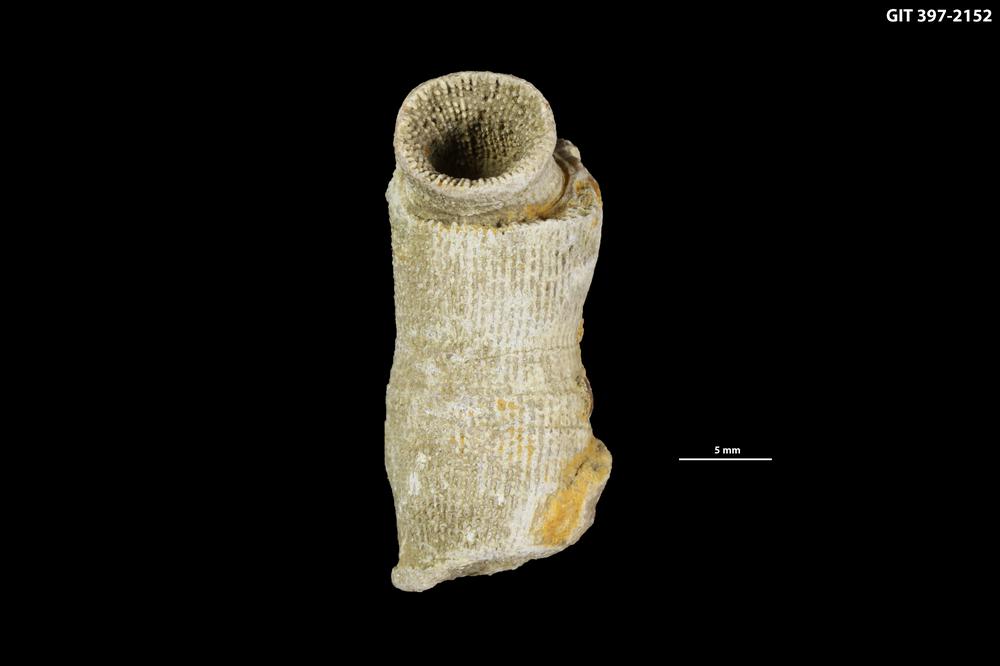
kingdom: Animalia
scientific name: Animalia
